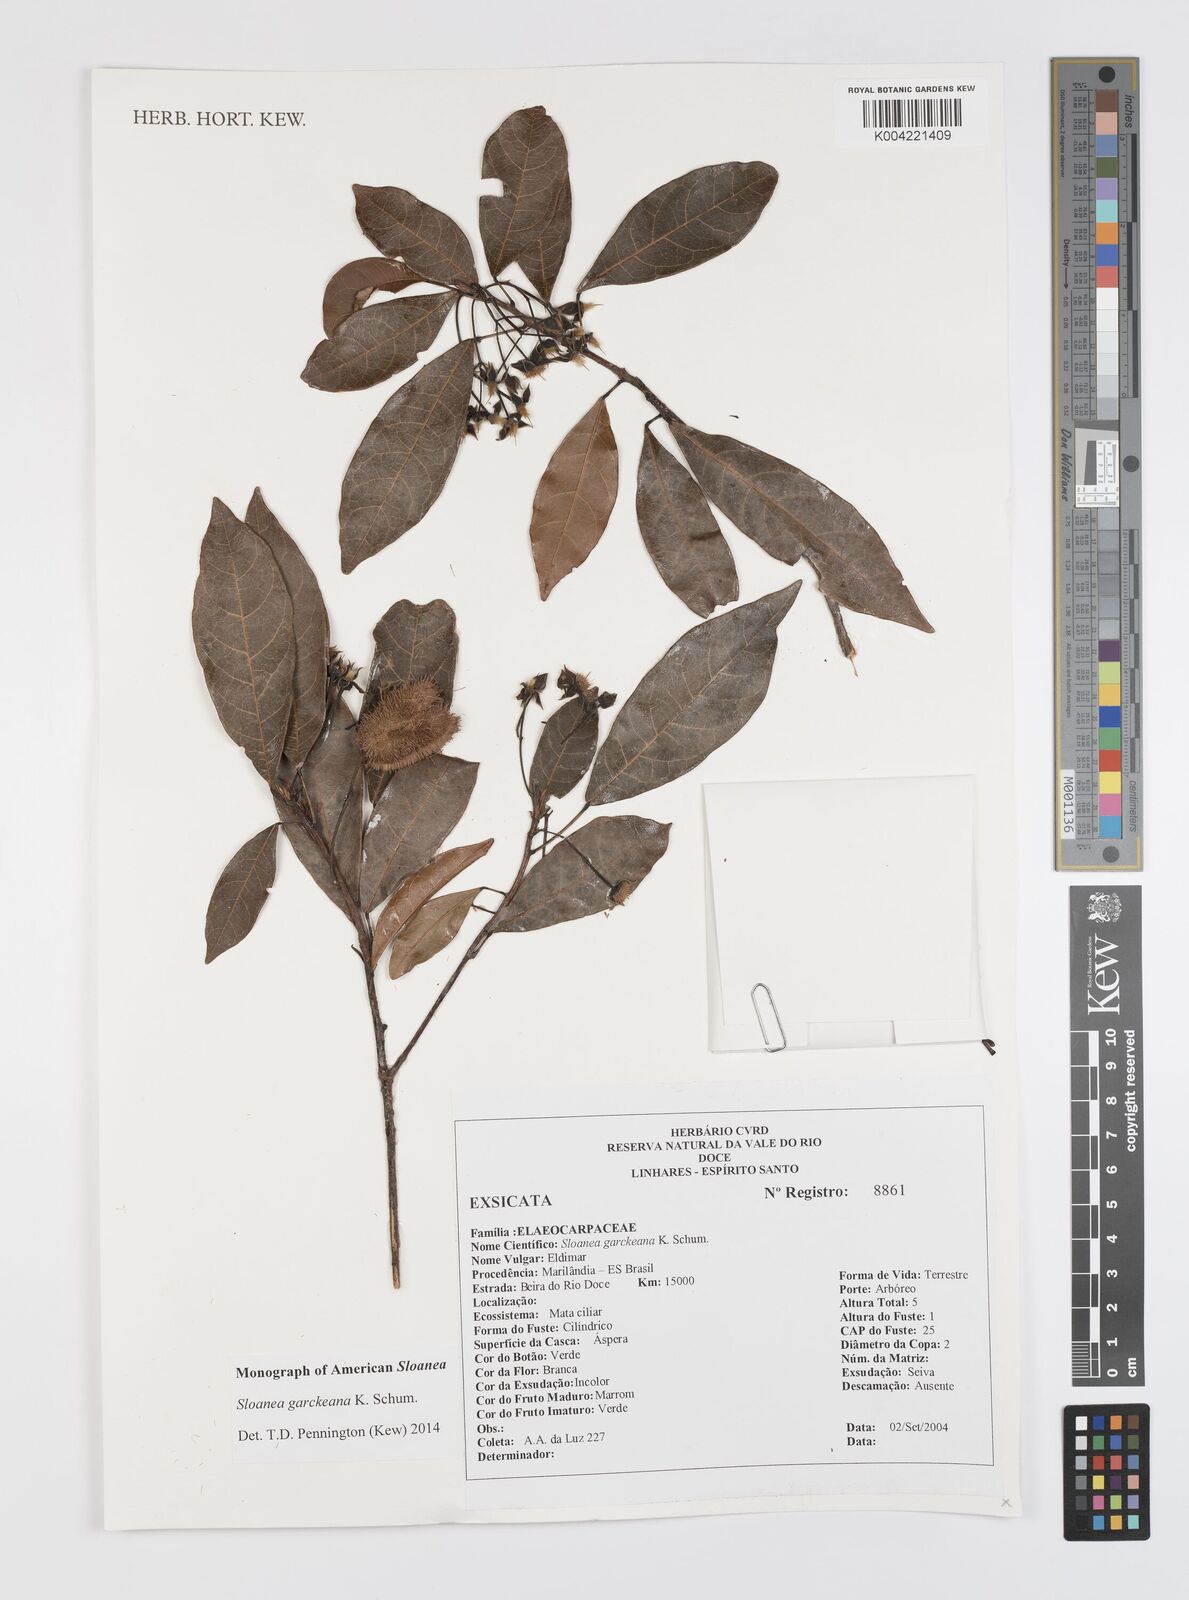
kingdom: Plantae
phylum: Tracheophyta
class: Magnoliopsida
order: Oxalidales
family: Elaeocarpaceae
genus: Sloanea
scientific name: Sloanea garckeana
